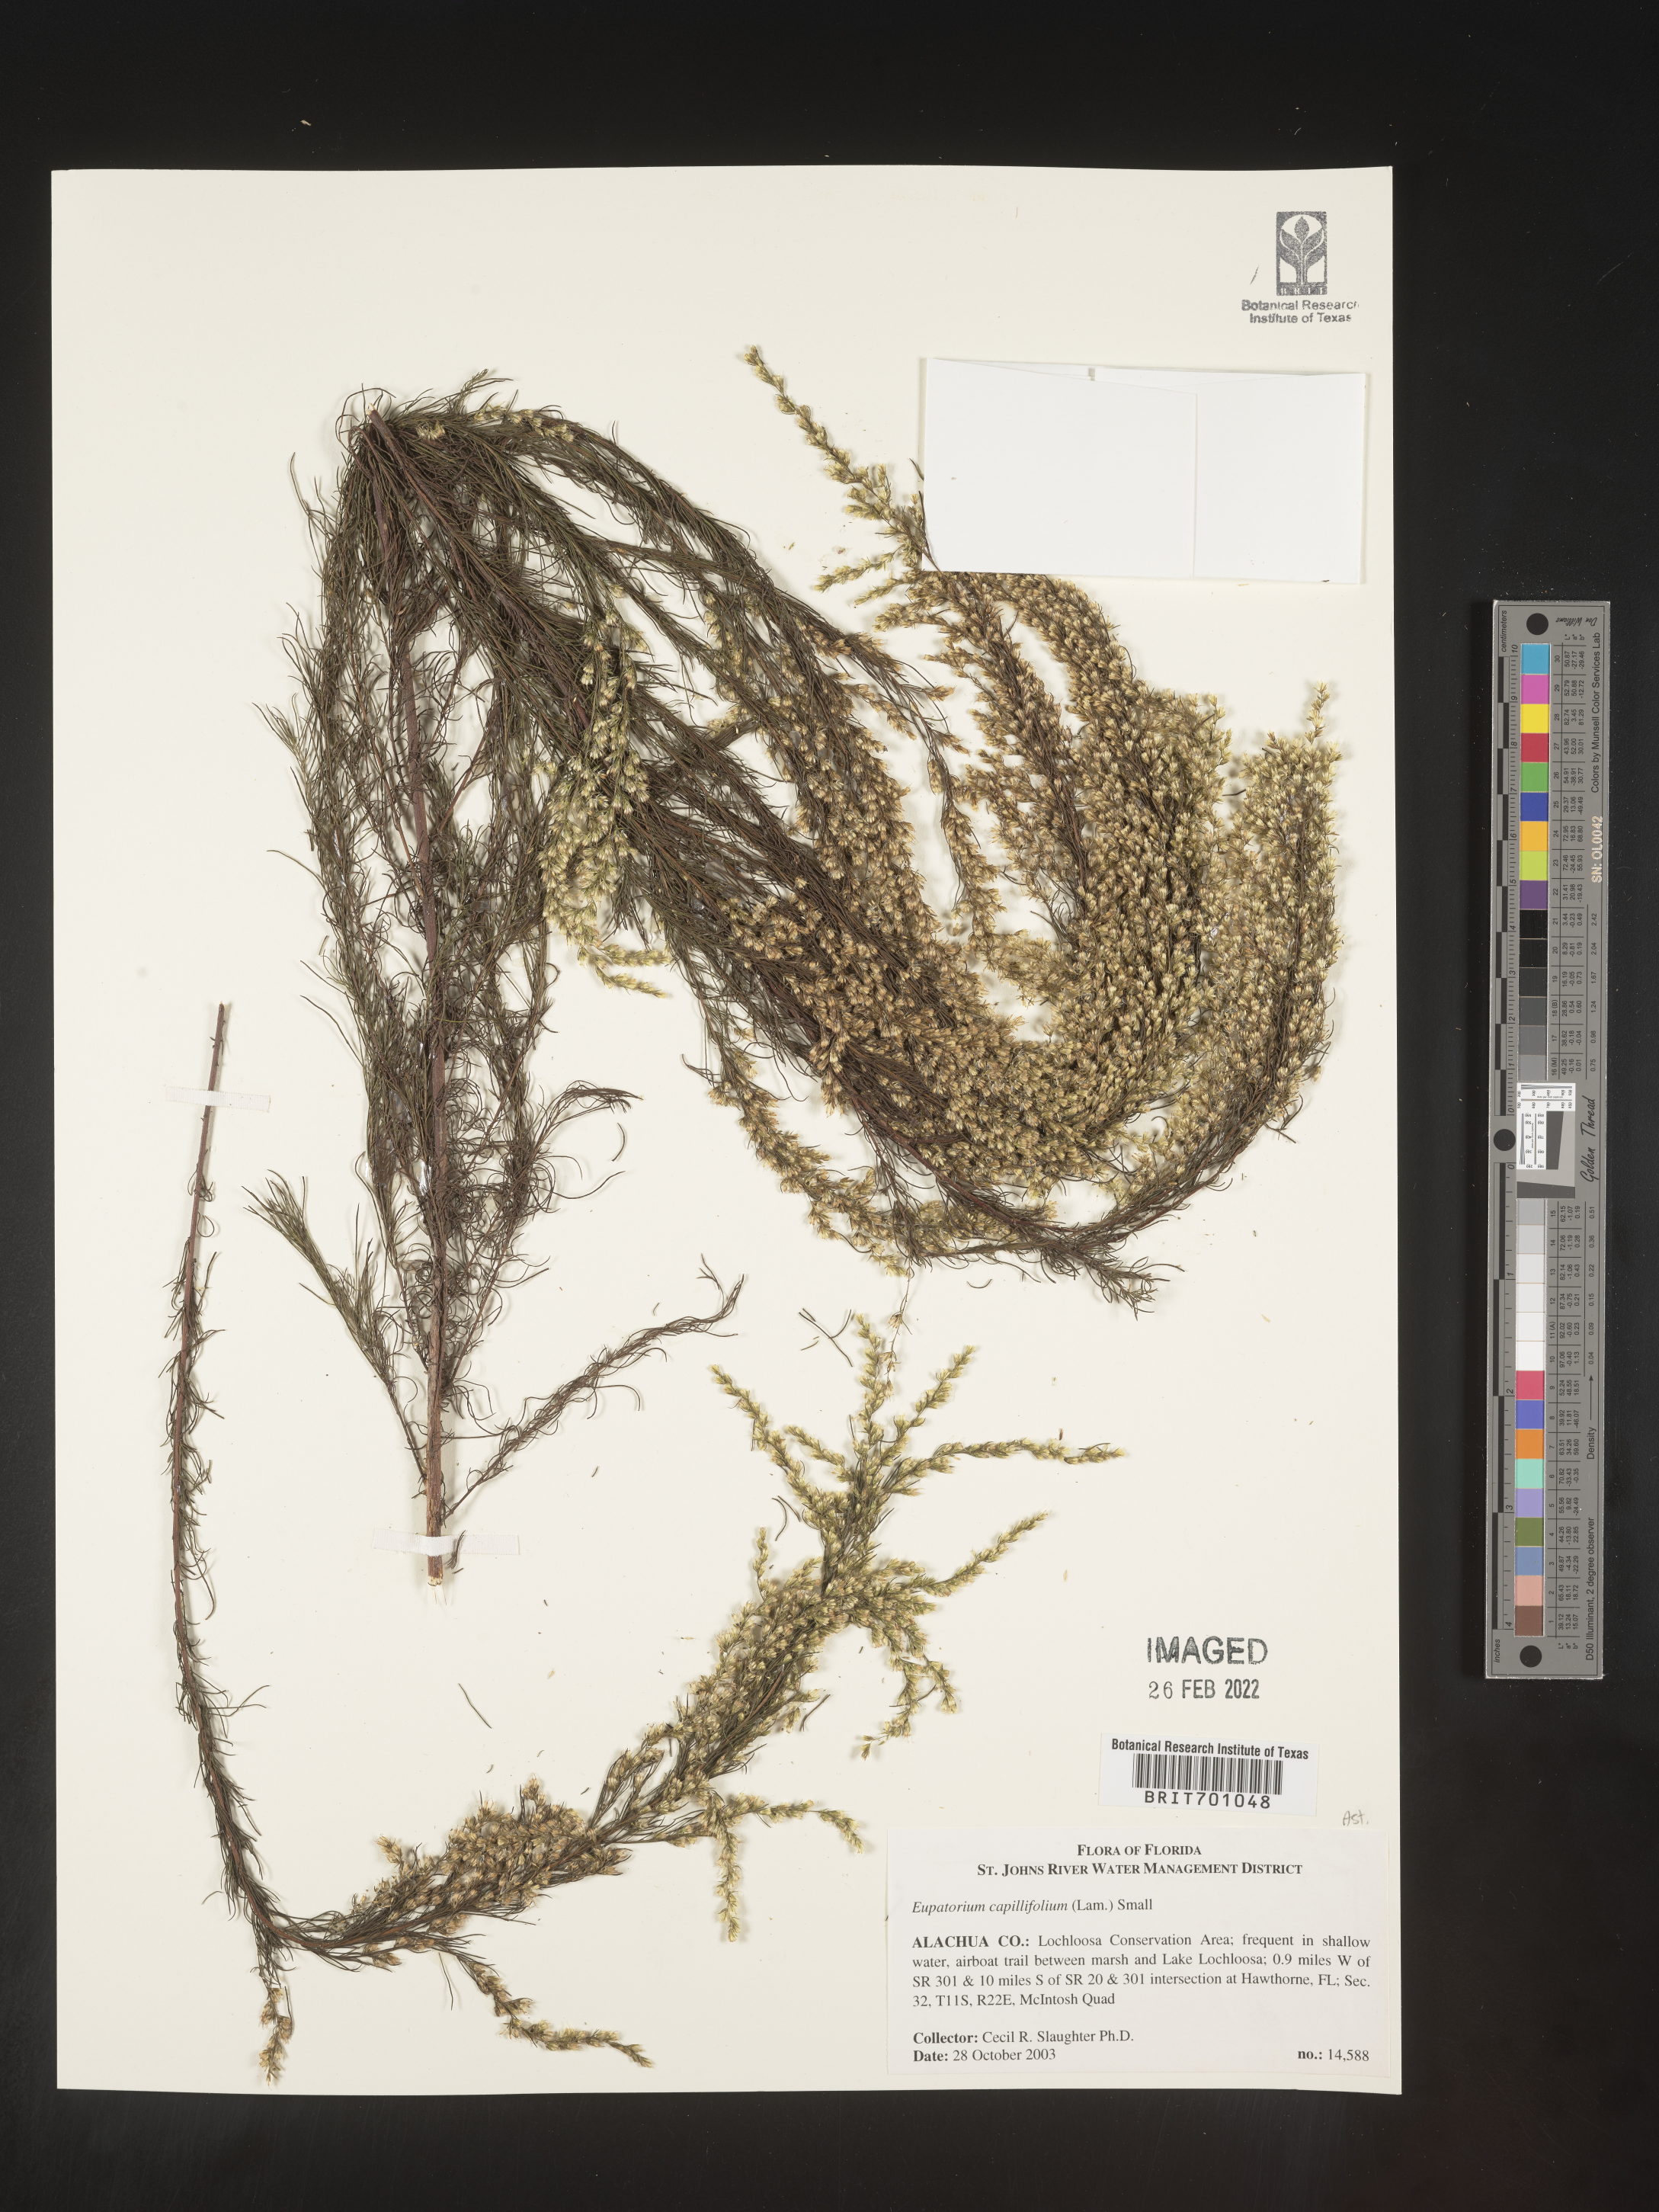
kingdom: Plantae
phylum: Tracheophyta
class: Magnoliopsida
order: Asterales
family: Asteraceae
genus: Eupatorium
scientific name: Eupatorium capillifolium
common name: Dog-fennel
